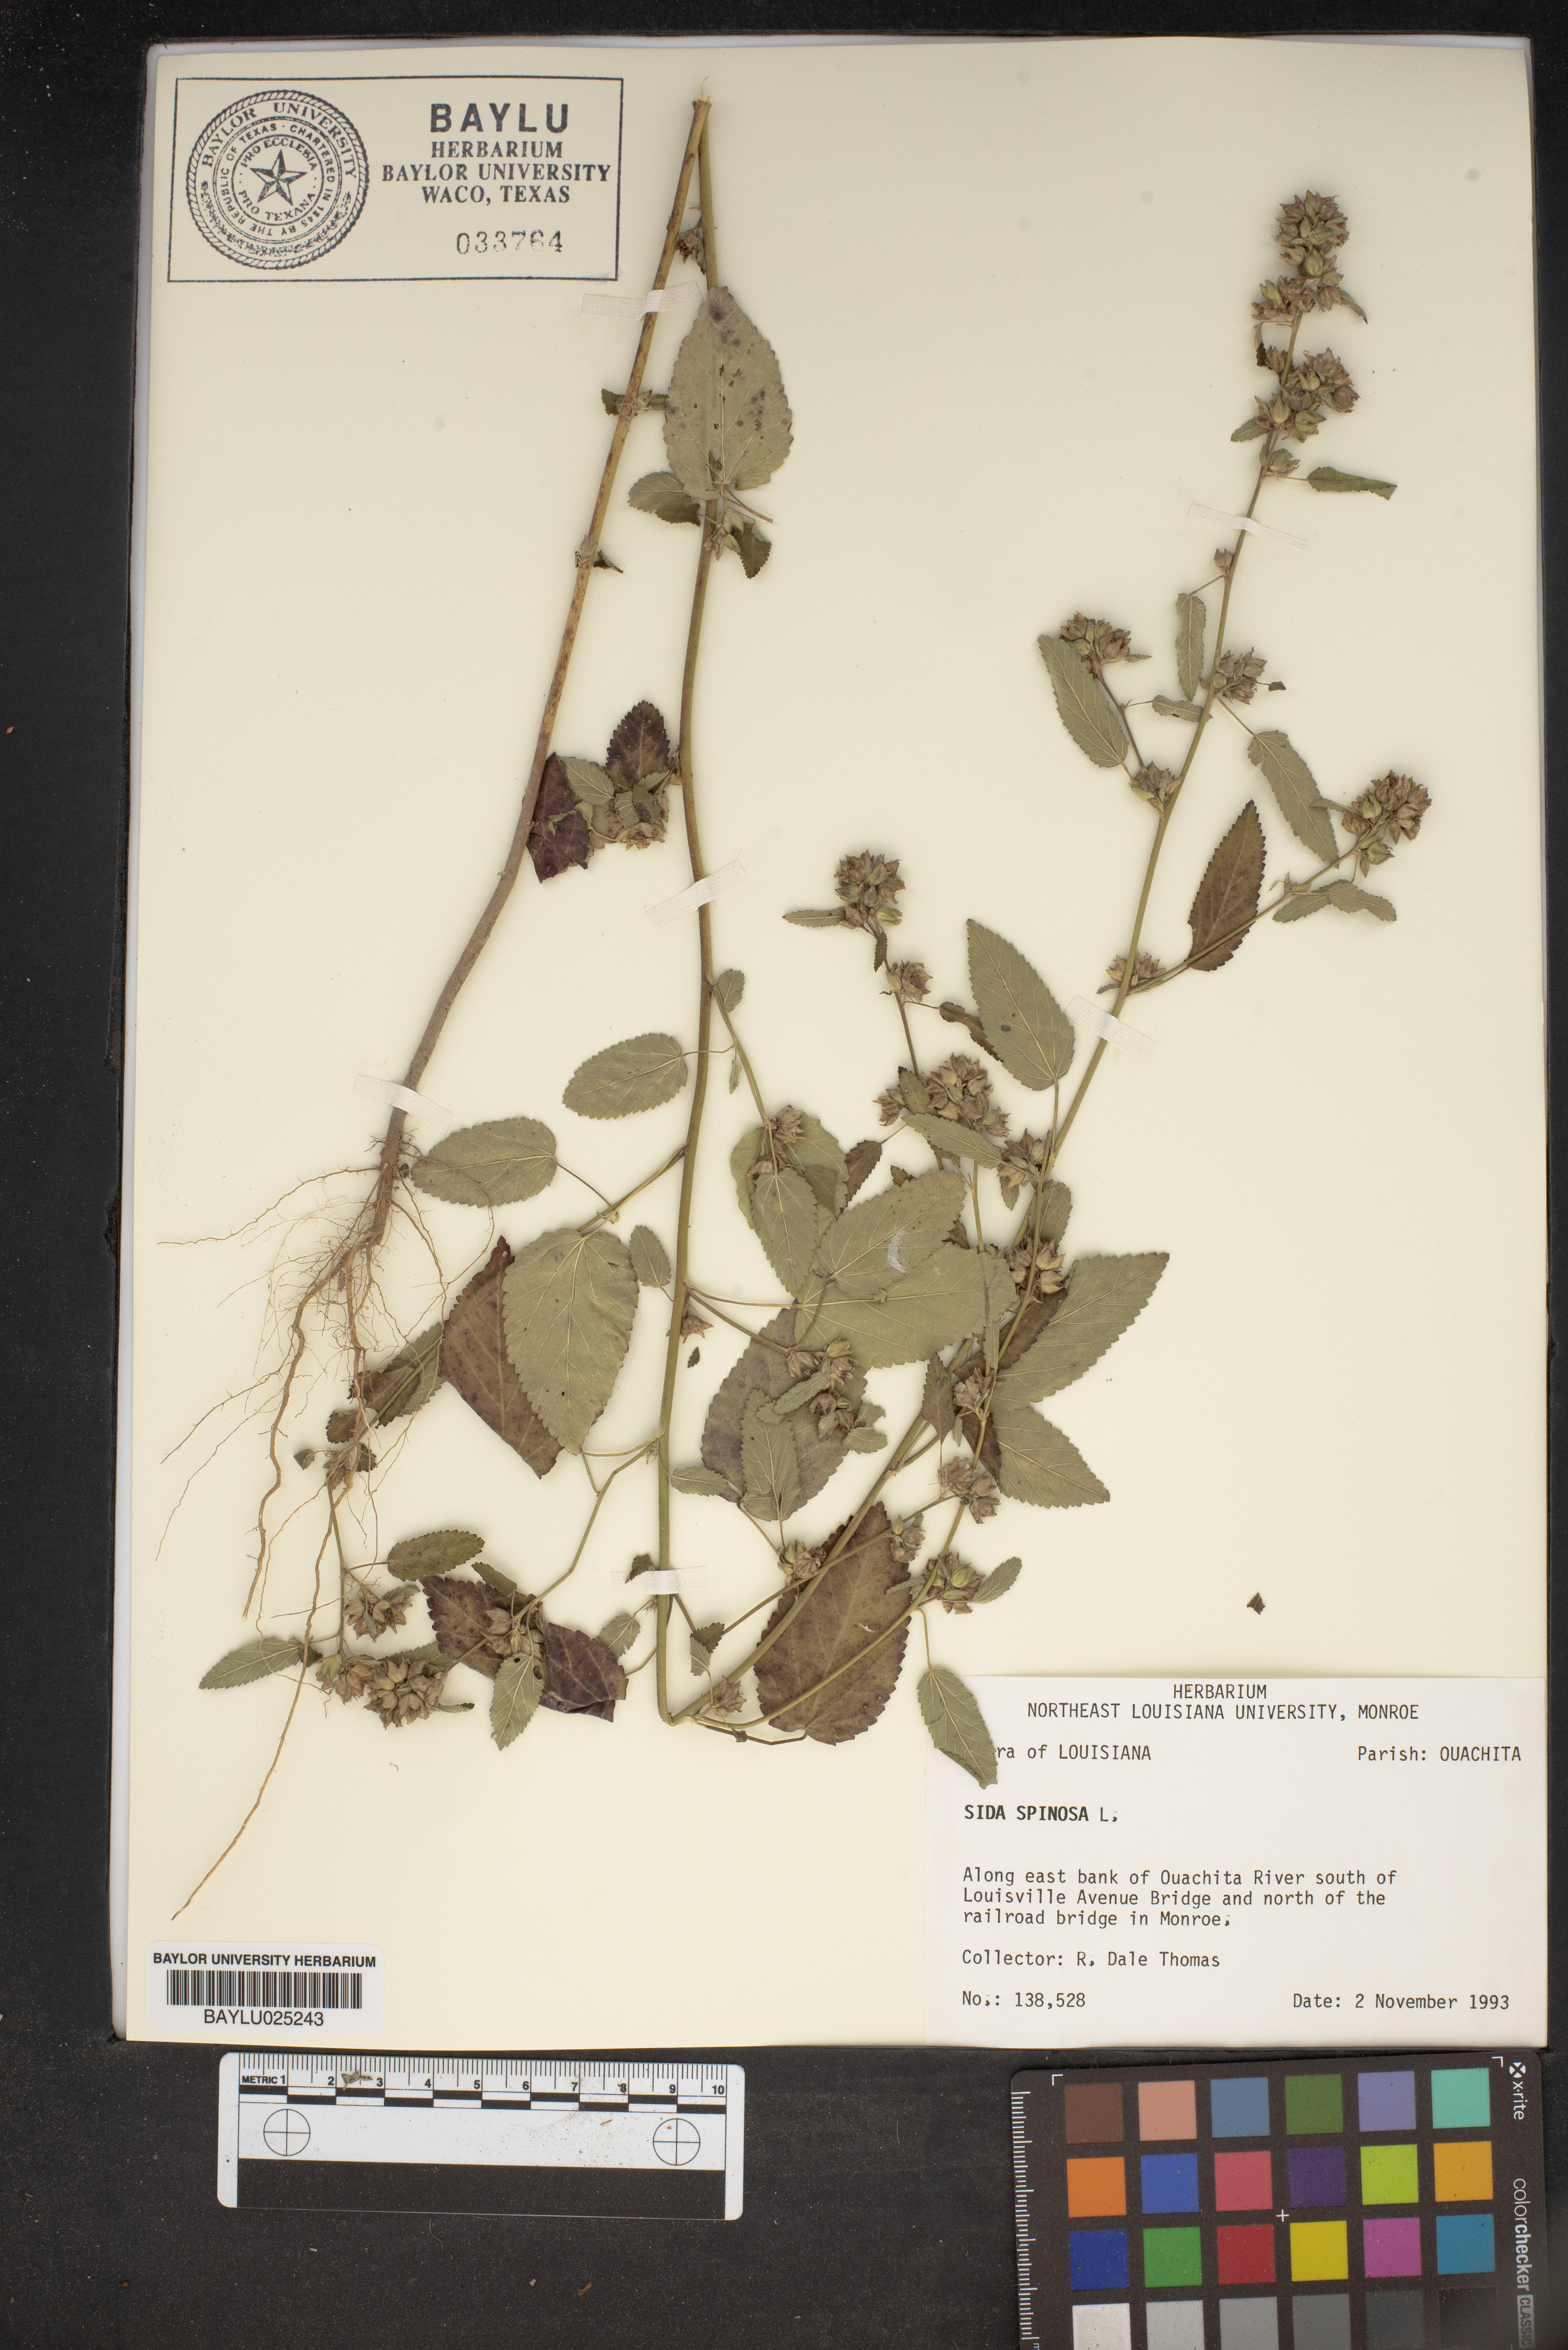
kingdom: Plantae
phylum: Tracheophyta
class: Magnoliopsida
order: Malvales
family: Malvaceae
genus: Sida
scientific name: Sida spinosa
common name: Prickly fanpetals
